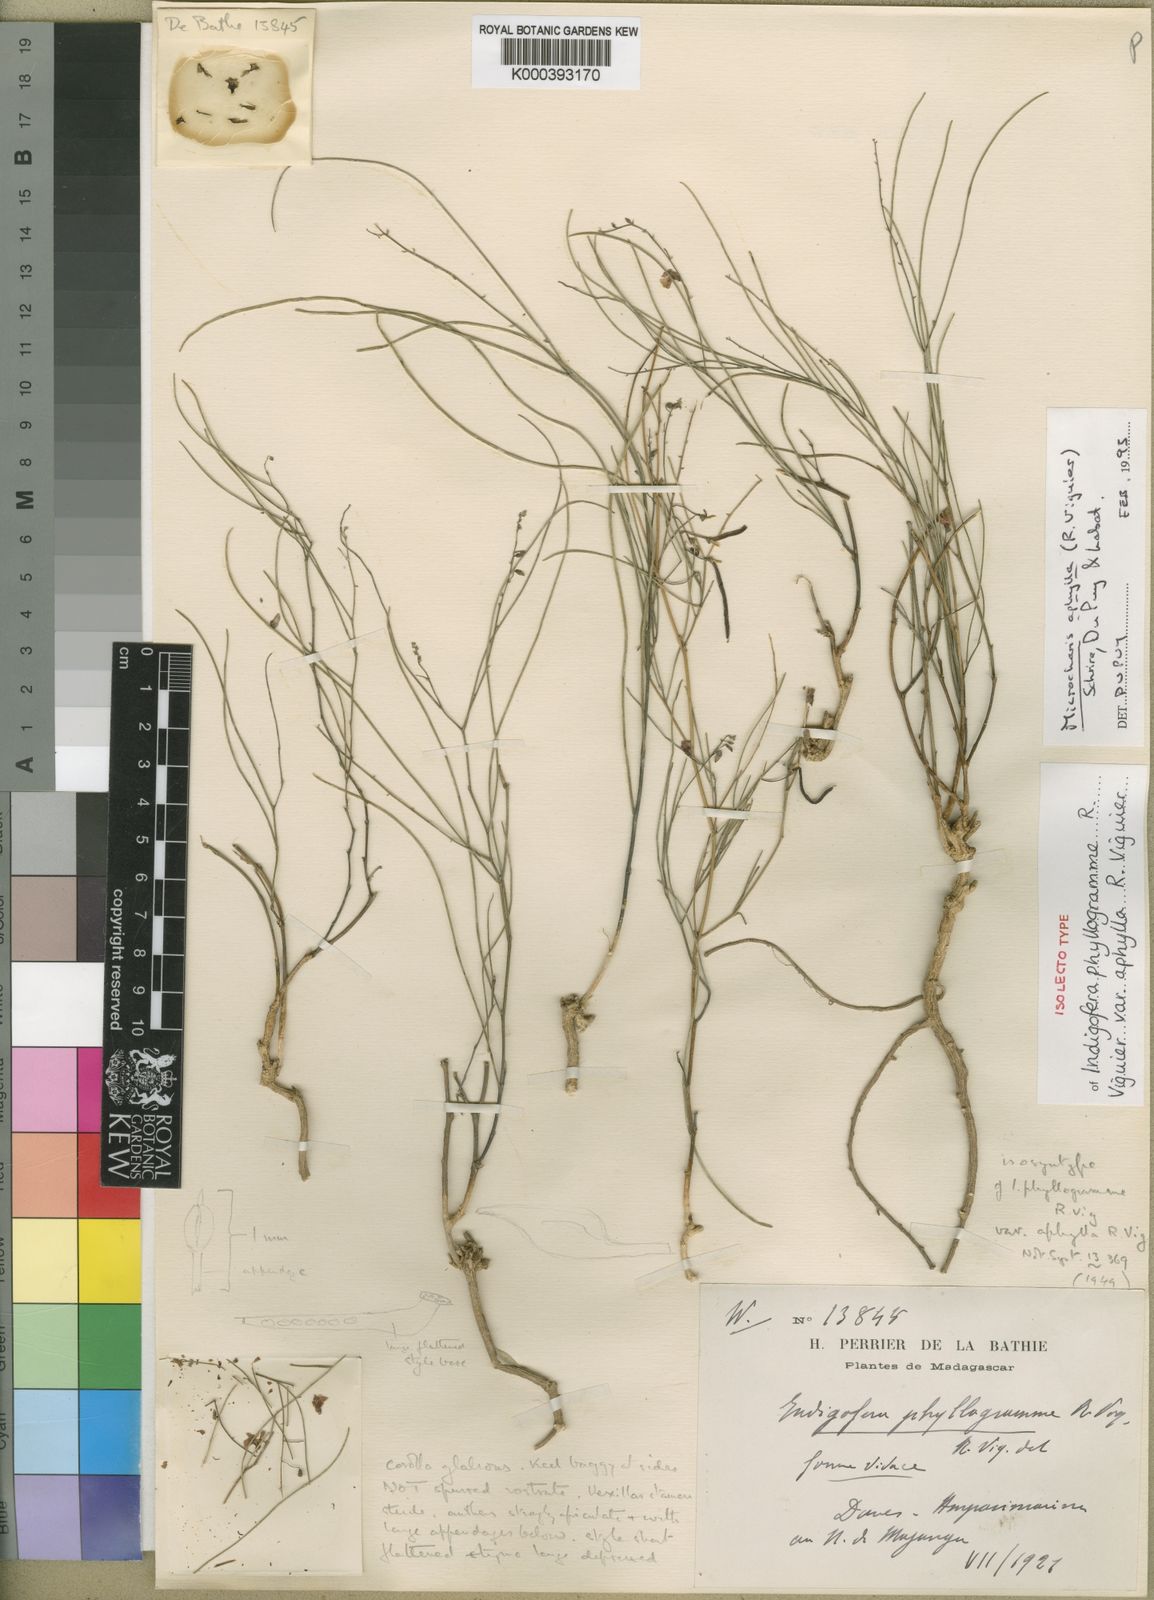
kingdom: Plantae
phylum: Tracheophyta
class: Magnoliopsida
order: Fabales
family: Fabaceae
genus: Microcharis
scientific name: Microcharis phyllogramme
